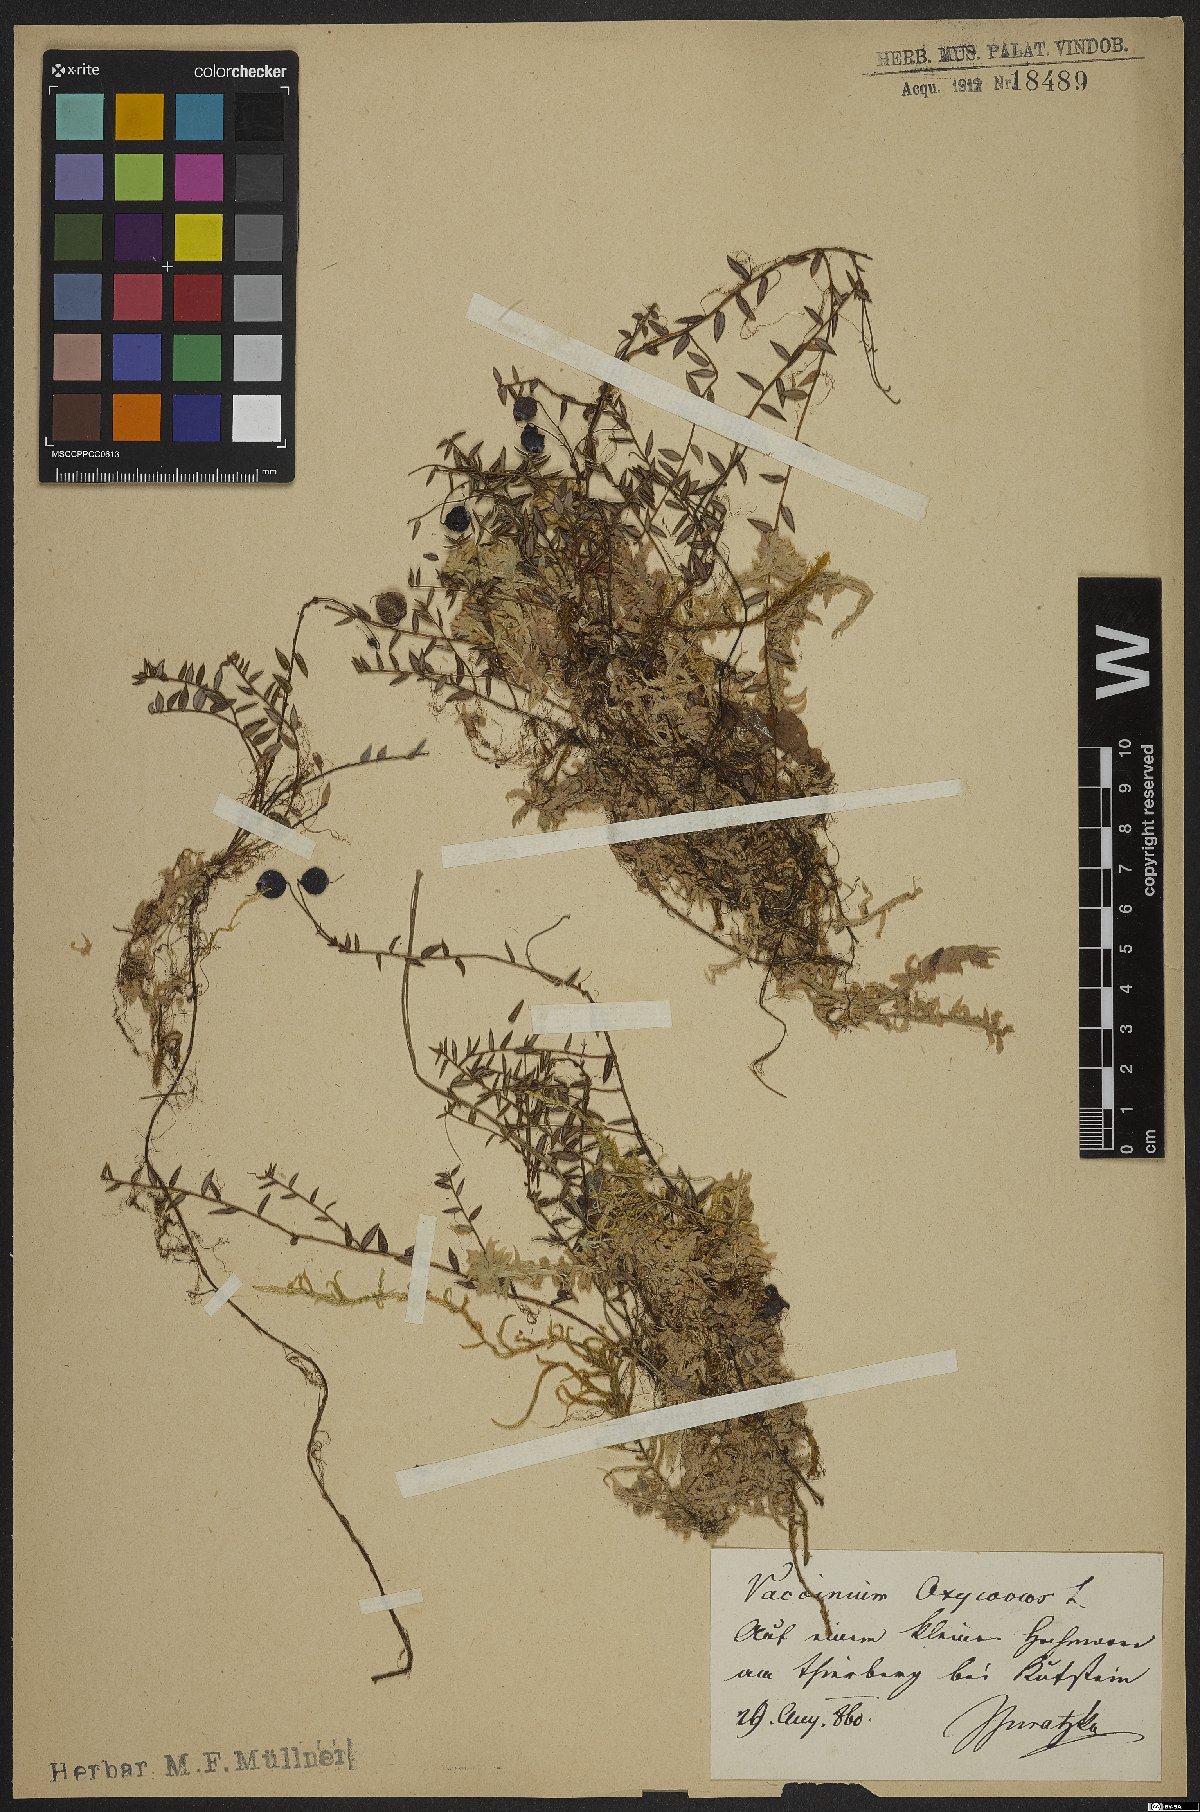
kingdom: Plantae
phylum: Tracheophyta
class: Magnoliopsida
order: Ericales
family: Ericaceae
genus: Vaccinium
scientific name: Vaccinium oxycoccos
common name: Cranberry
